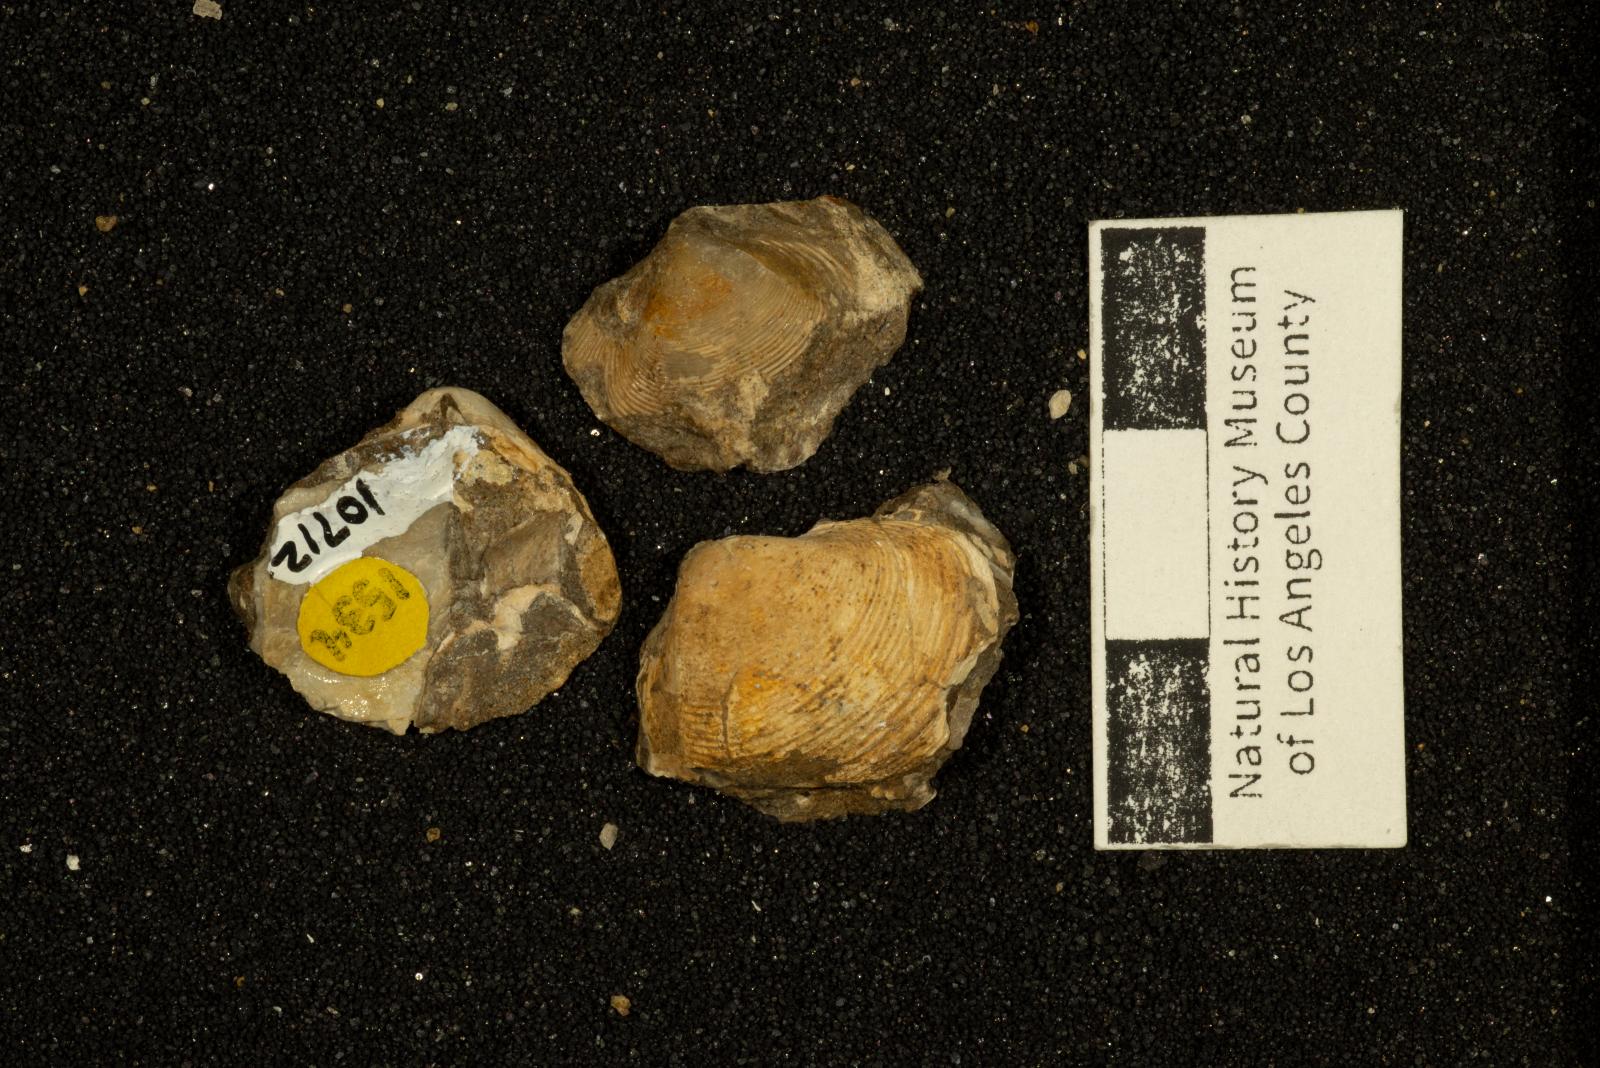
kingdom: Animalia
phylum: Mollusca
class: Bivalvia
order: Venerida
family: Mactridae
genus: Cymbophora
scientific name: Cymbophora popenoei
